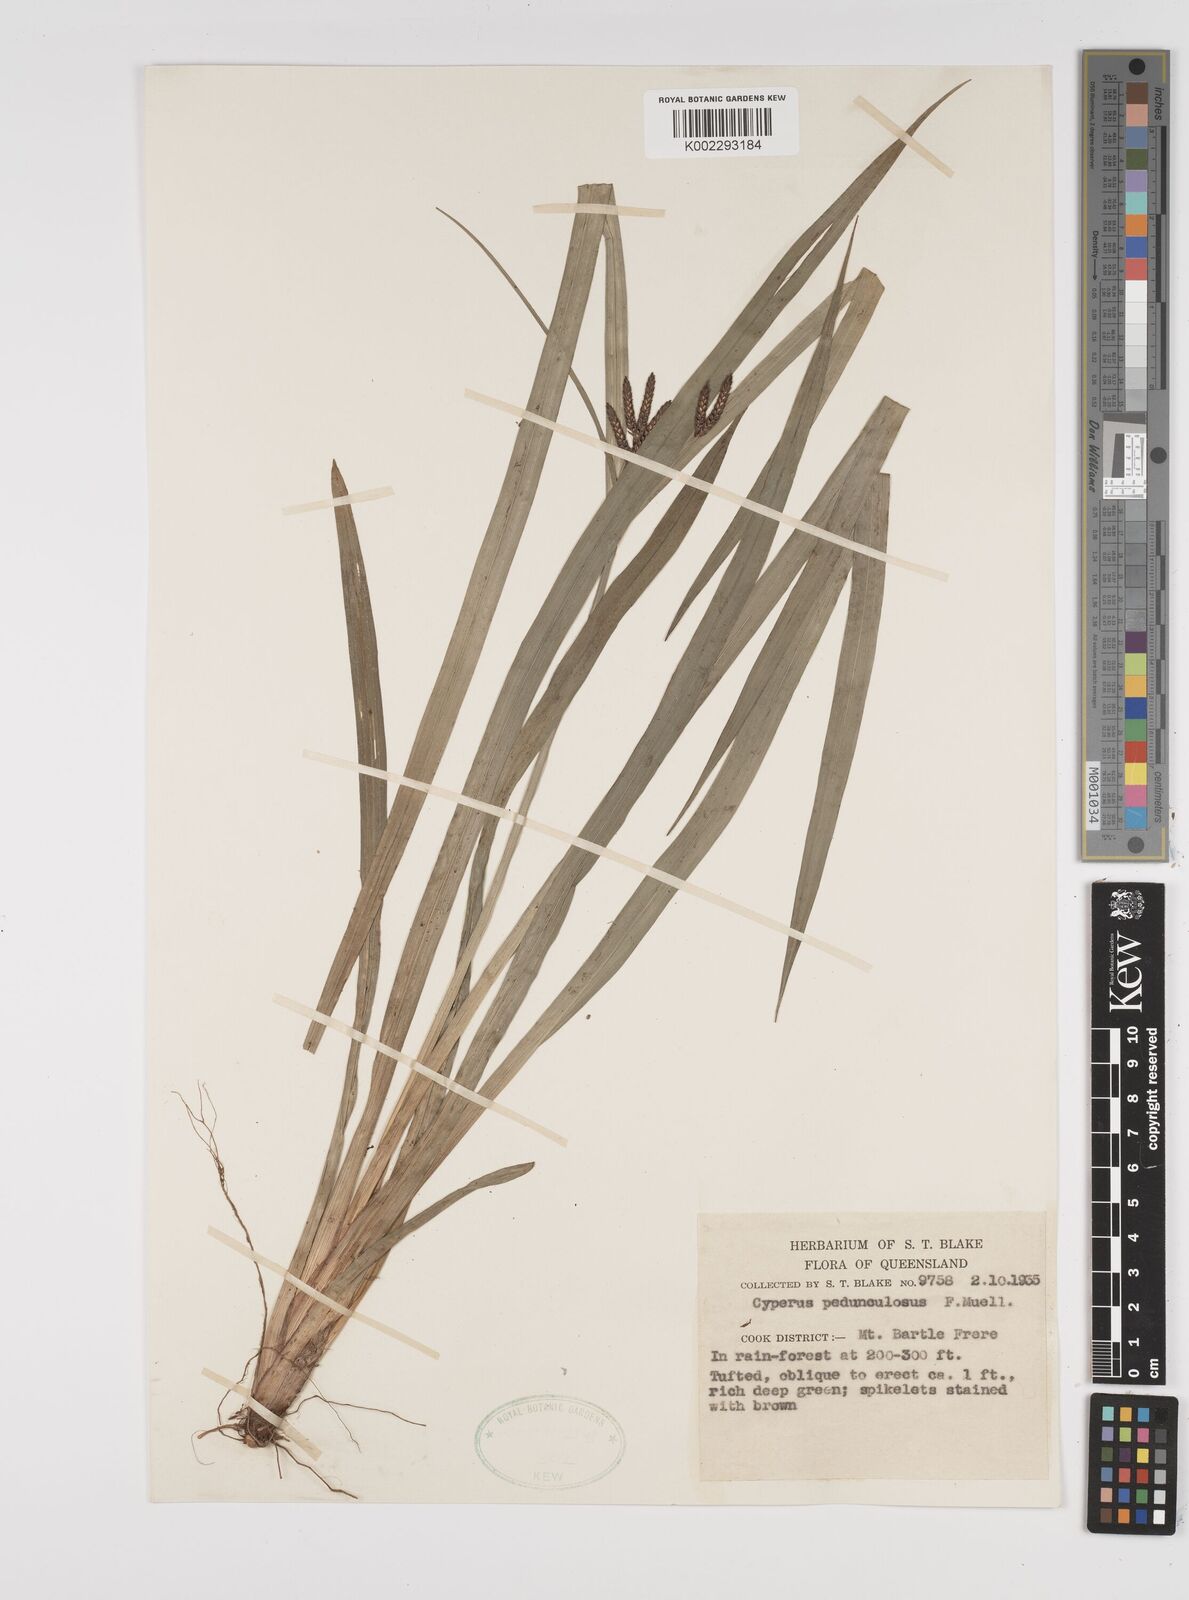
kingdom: Plantae
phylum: Tracheophyta
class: Liliopsida
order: Poales
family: Cyperaceae
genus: Cyperus
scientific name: Cyperus pedunculosus
